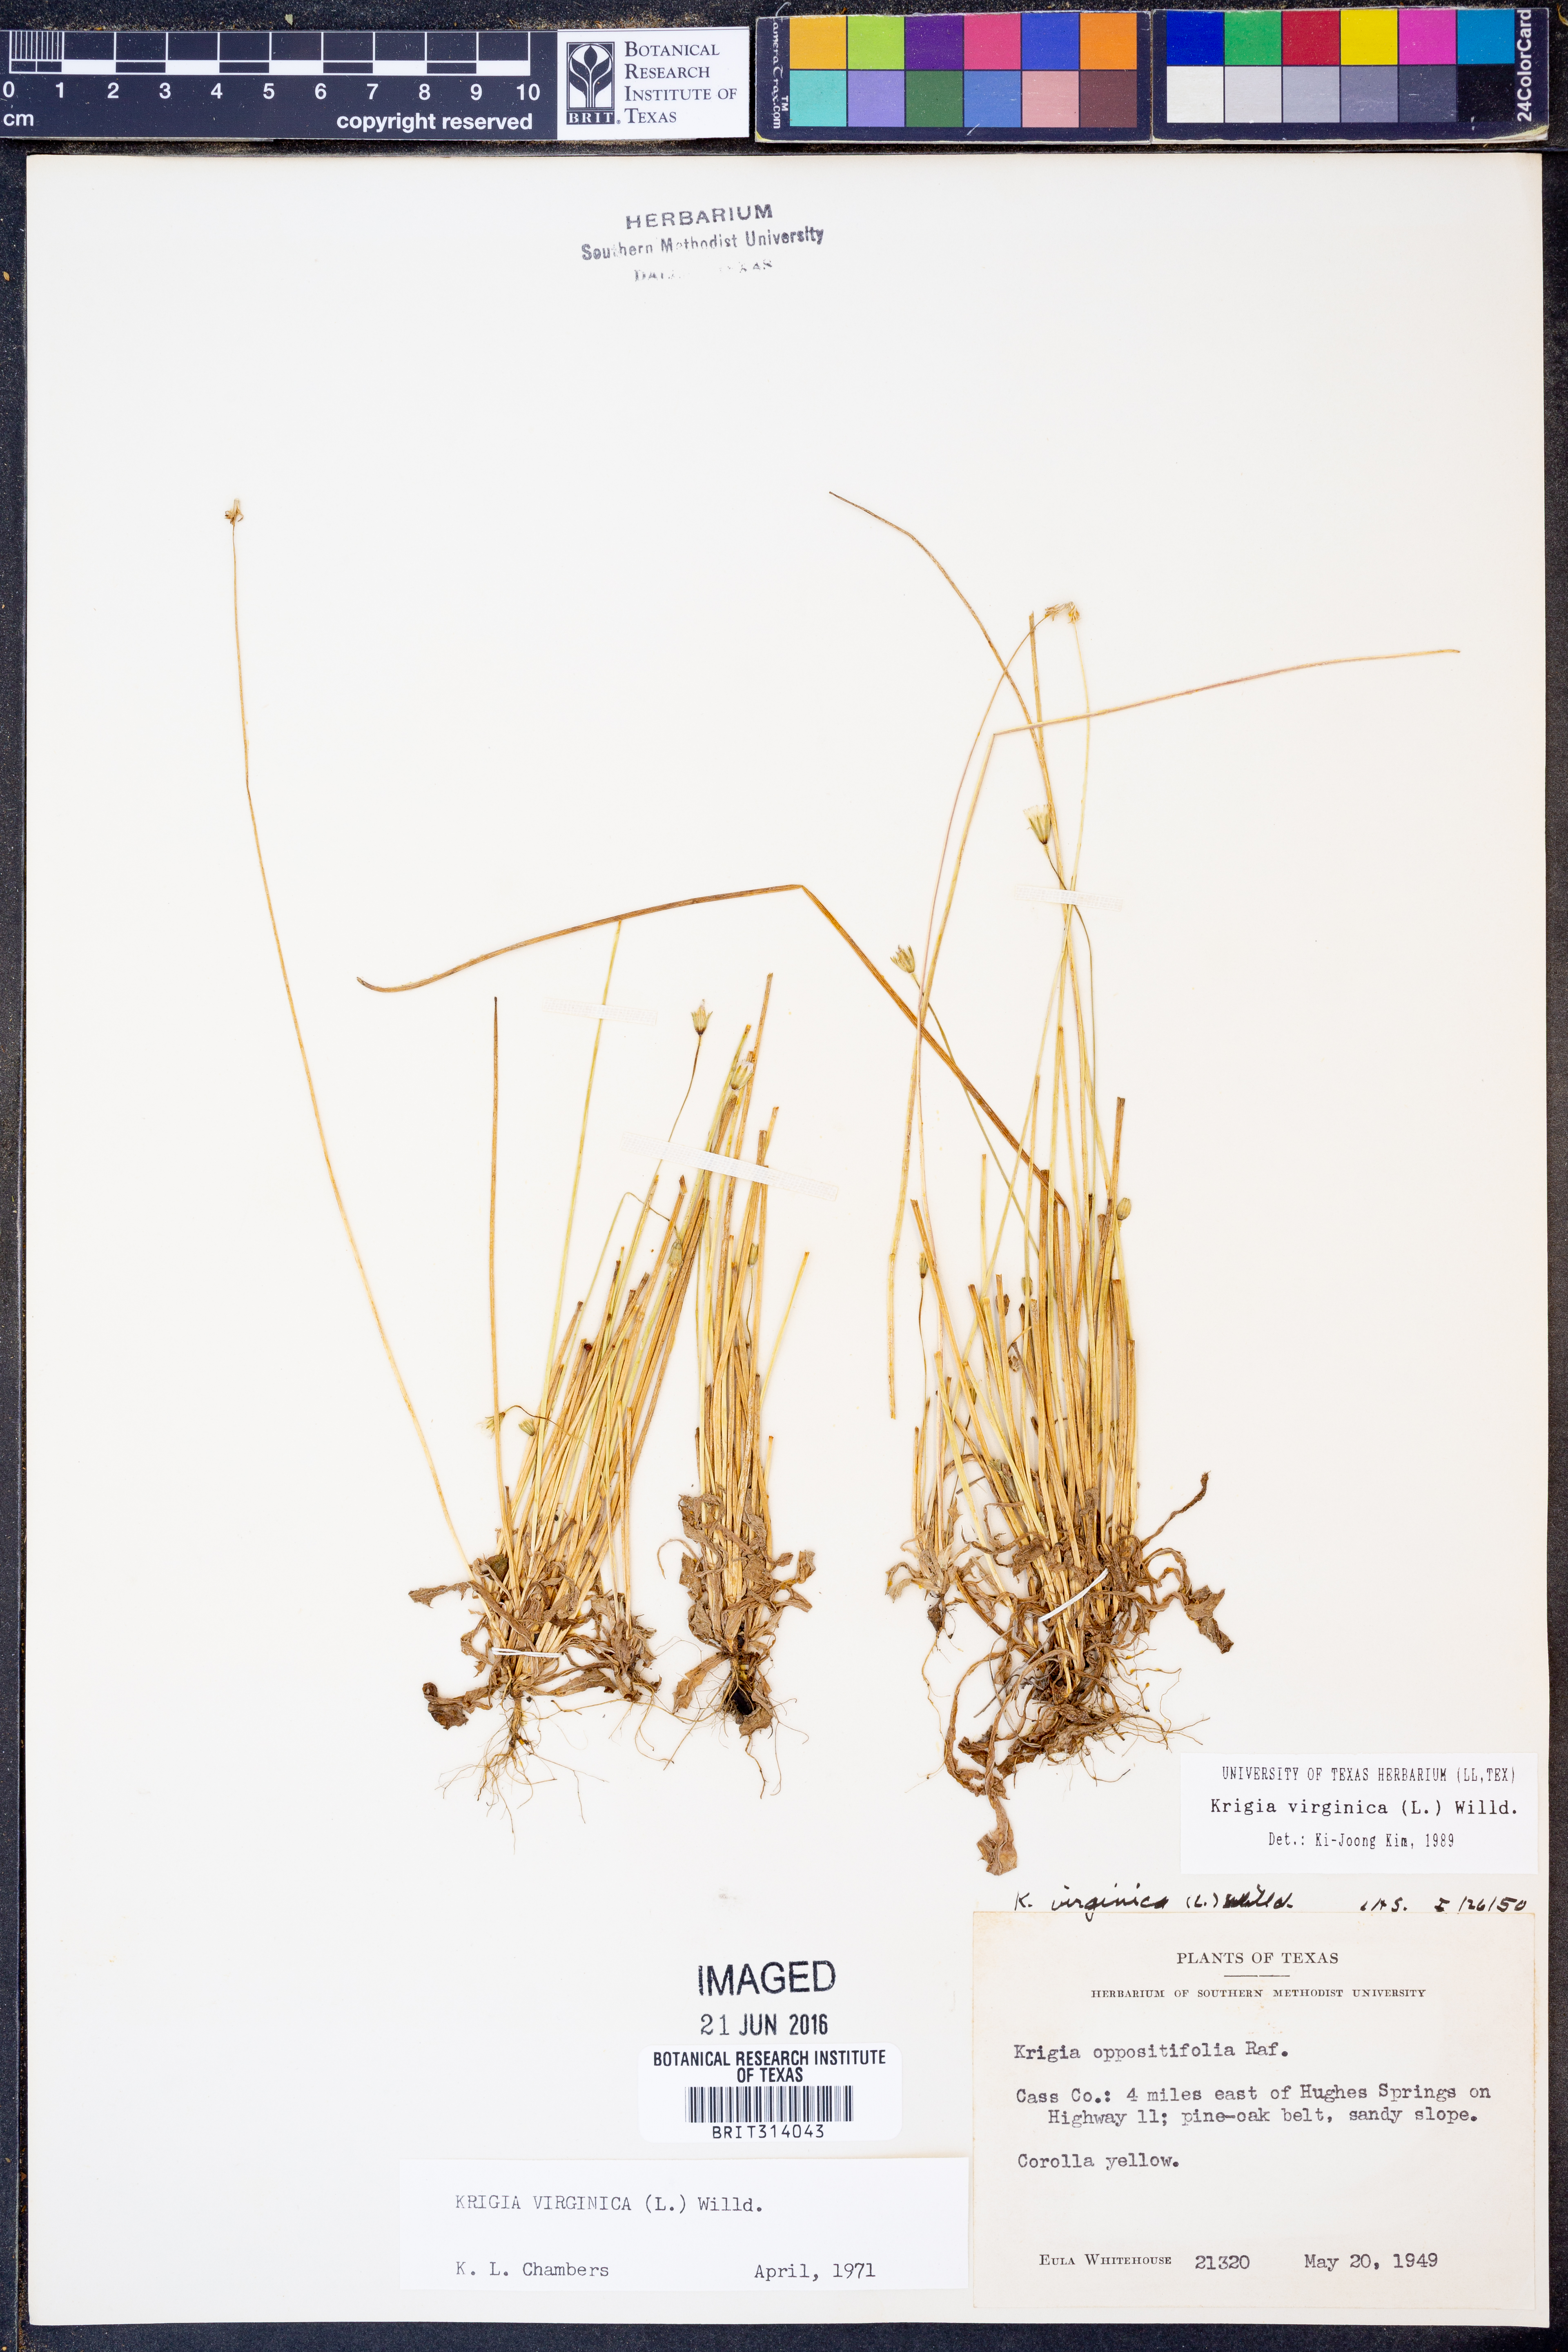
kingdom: Plantae
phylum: Tracheophyta
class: Magnoliopsida
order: Asterales
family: Asteraceae
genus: Krigia
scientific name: Krigia virginica
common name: Virginia dwarf-dandelion
